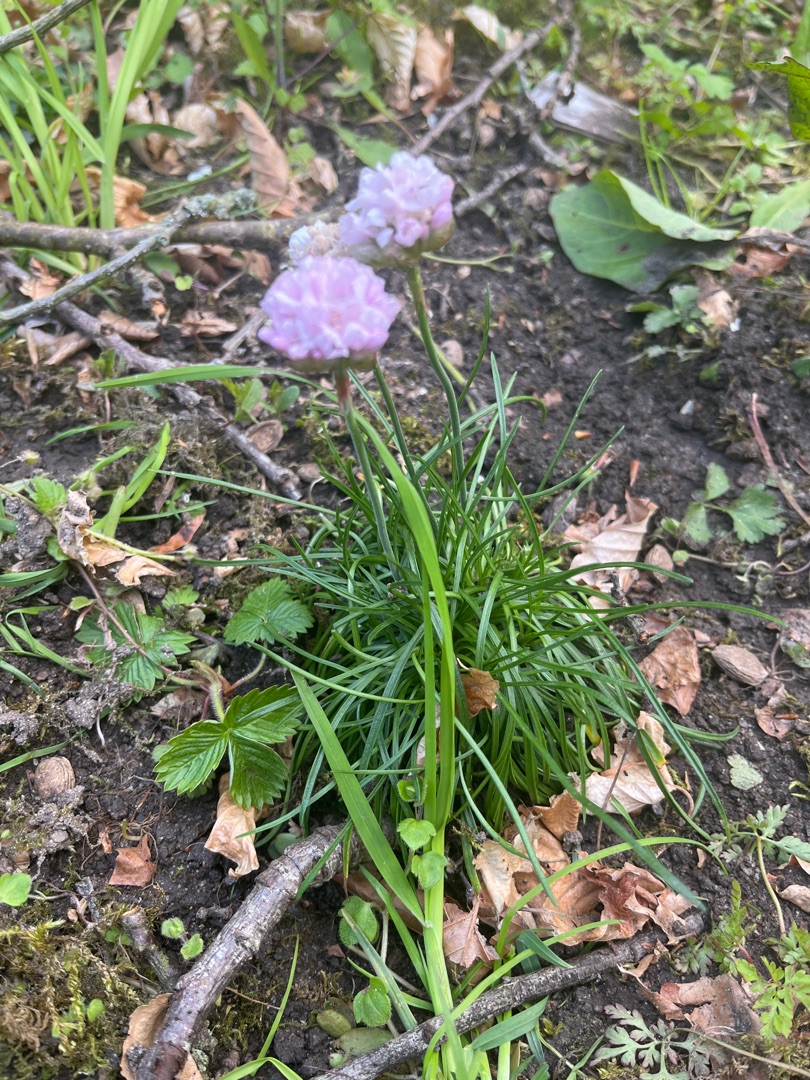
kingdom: Plantae
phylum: Tracheophyta
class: Magnoliopsida
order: Caryophyllales
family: Plumbaginaceae
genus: Armeria
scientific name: Armeria maritima
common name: Engelskgræs
